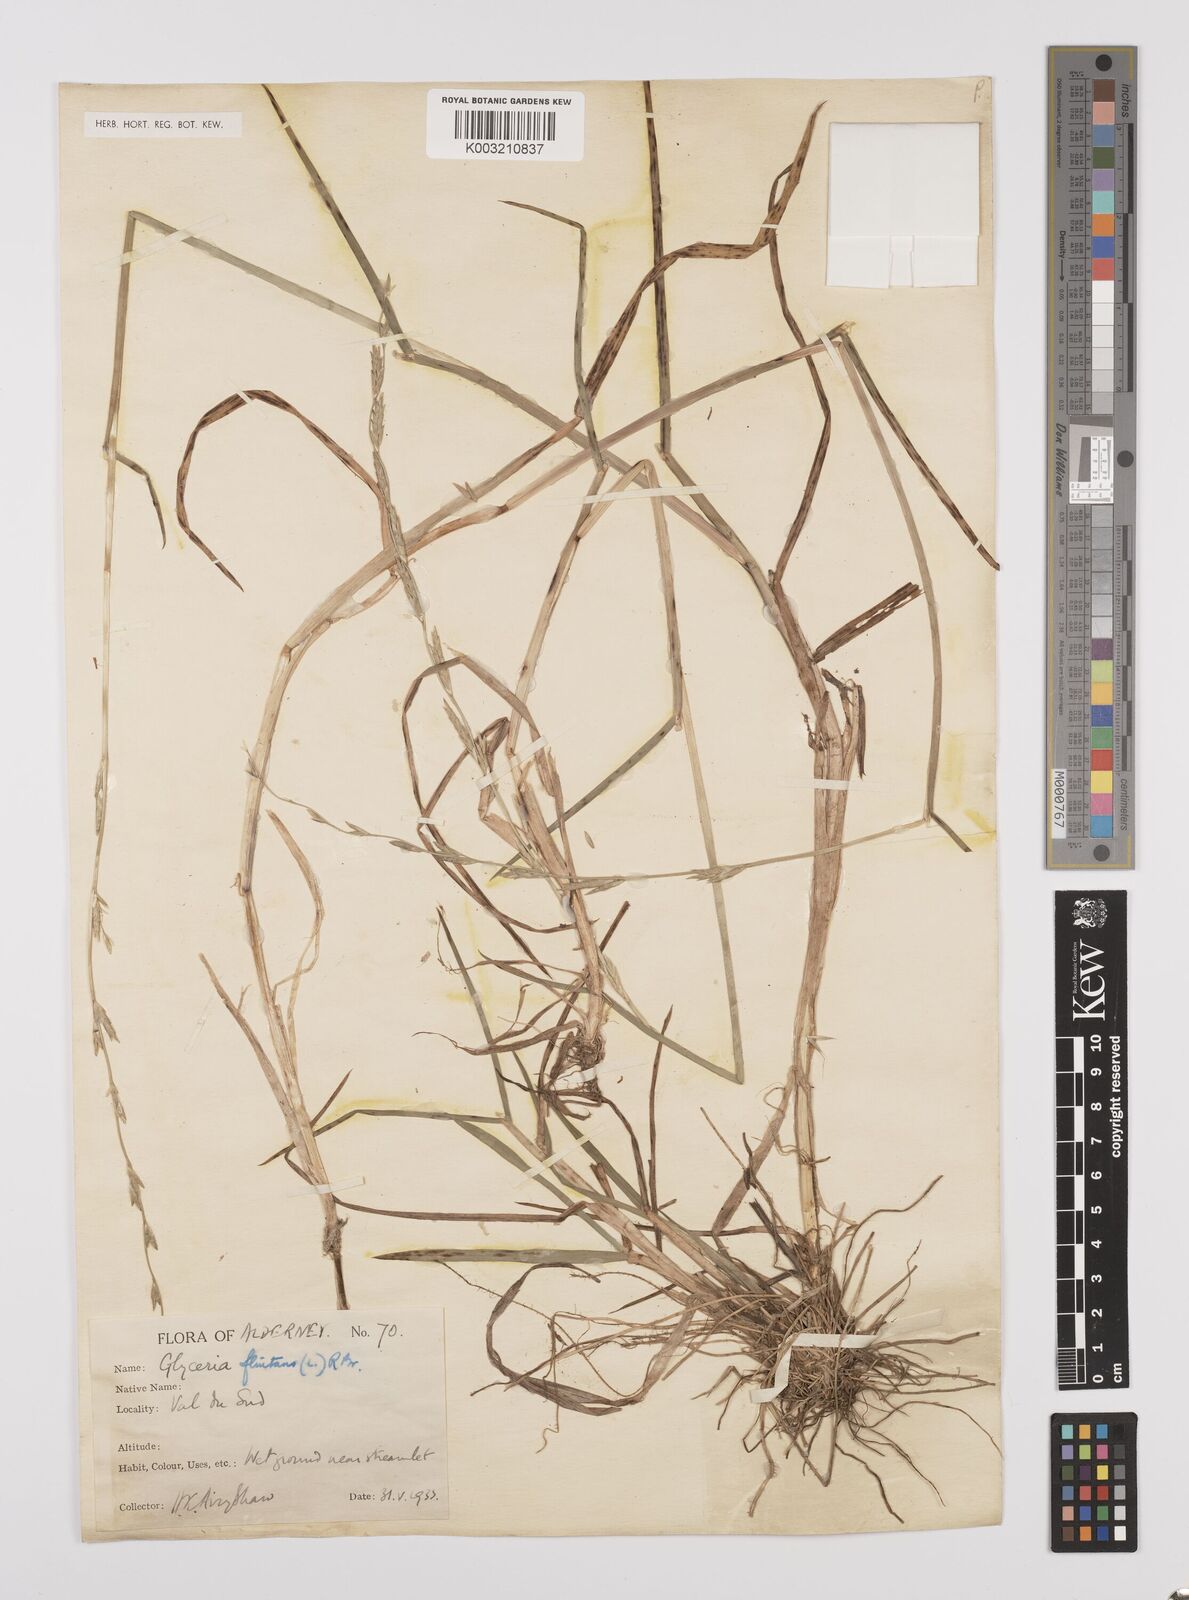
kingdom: Plantae
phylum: Tracheophyta
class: Liliopsida
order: Poales
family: Poaceae
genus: Glyceria
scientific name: Glyceria fluitans
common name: Floating sweet-grass
